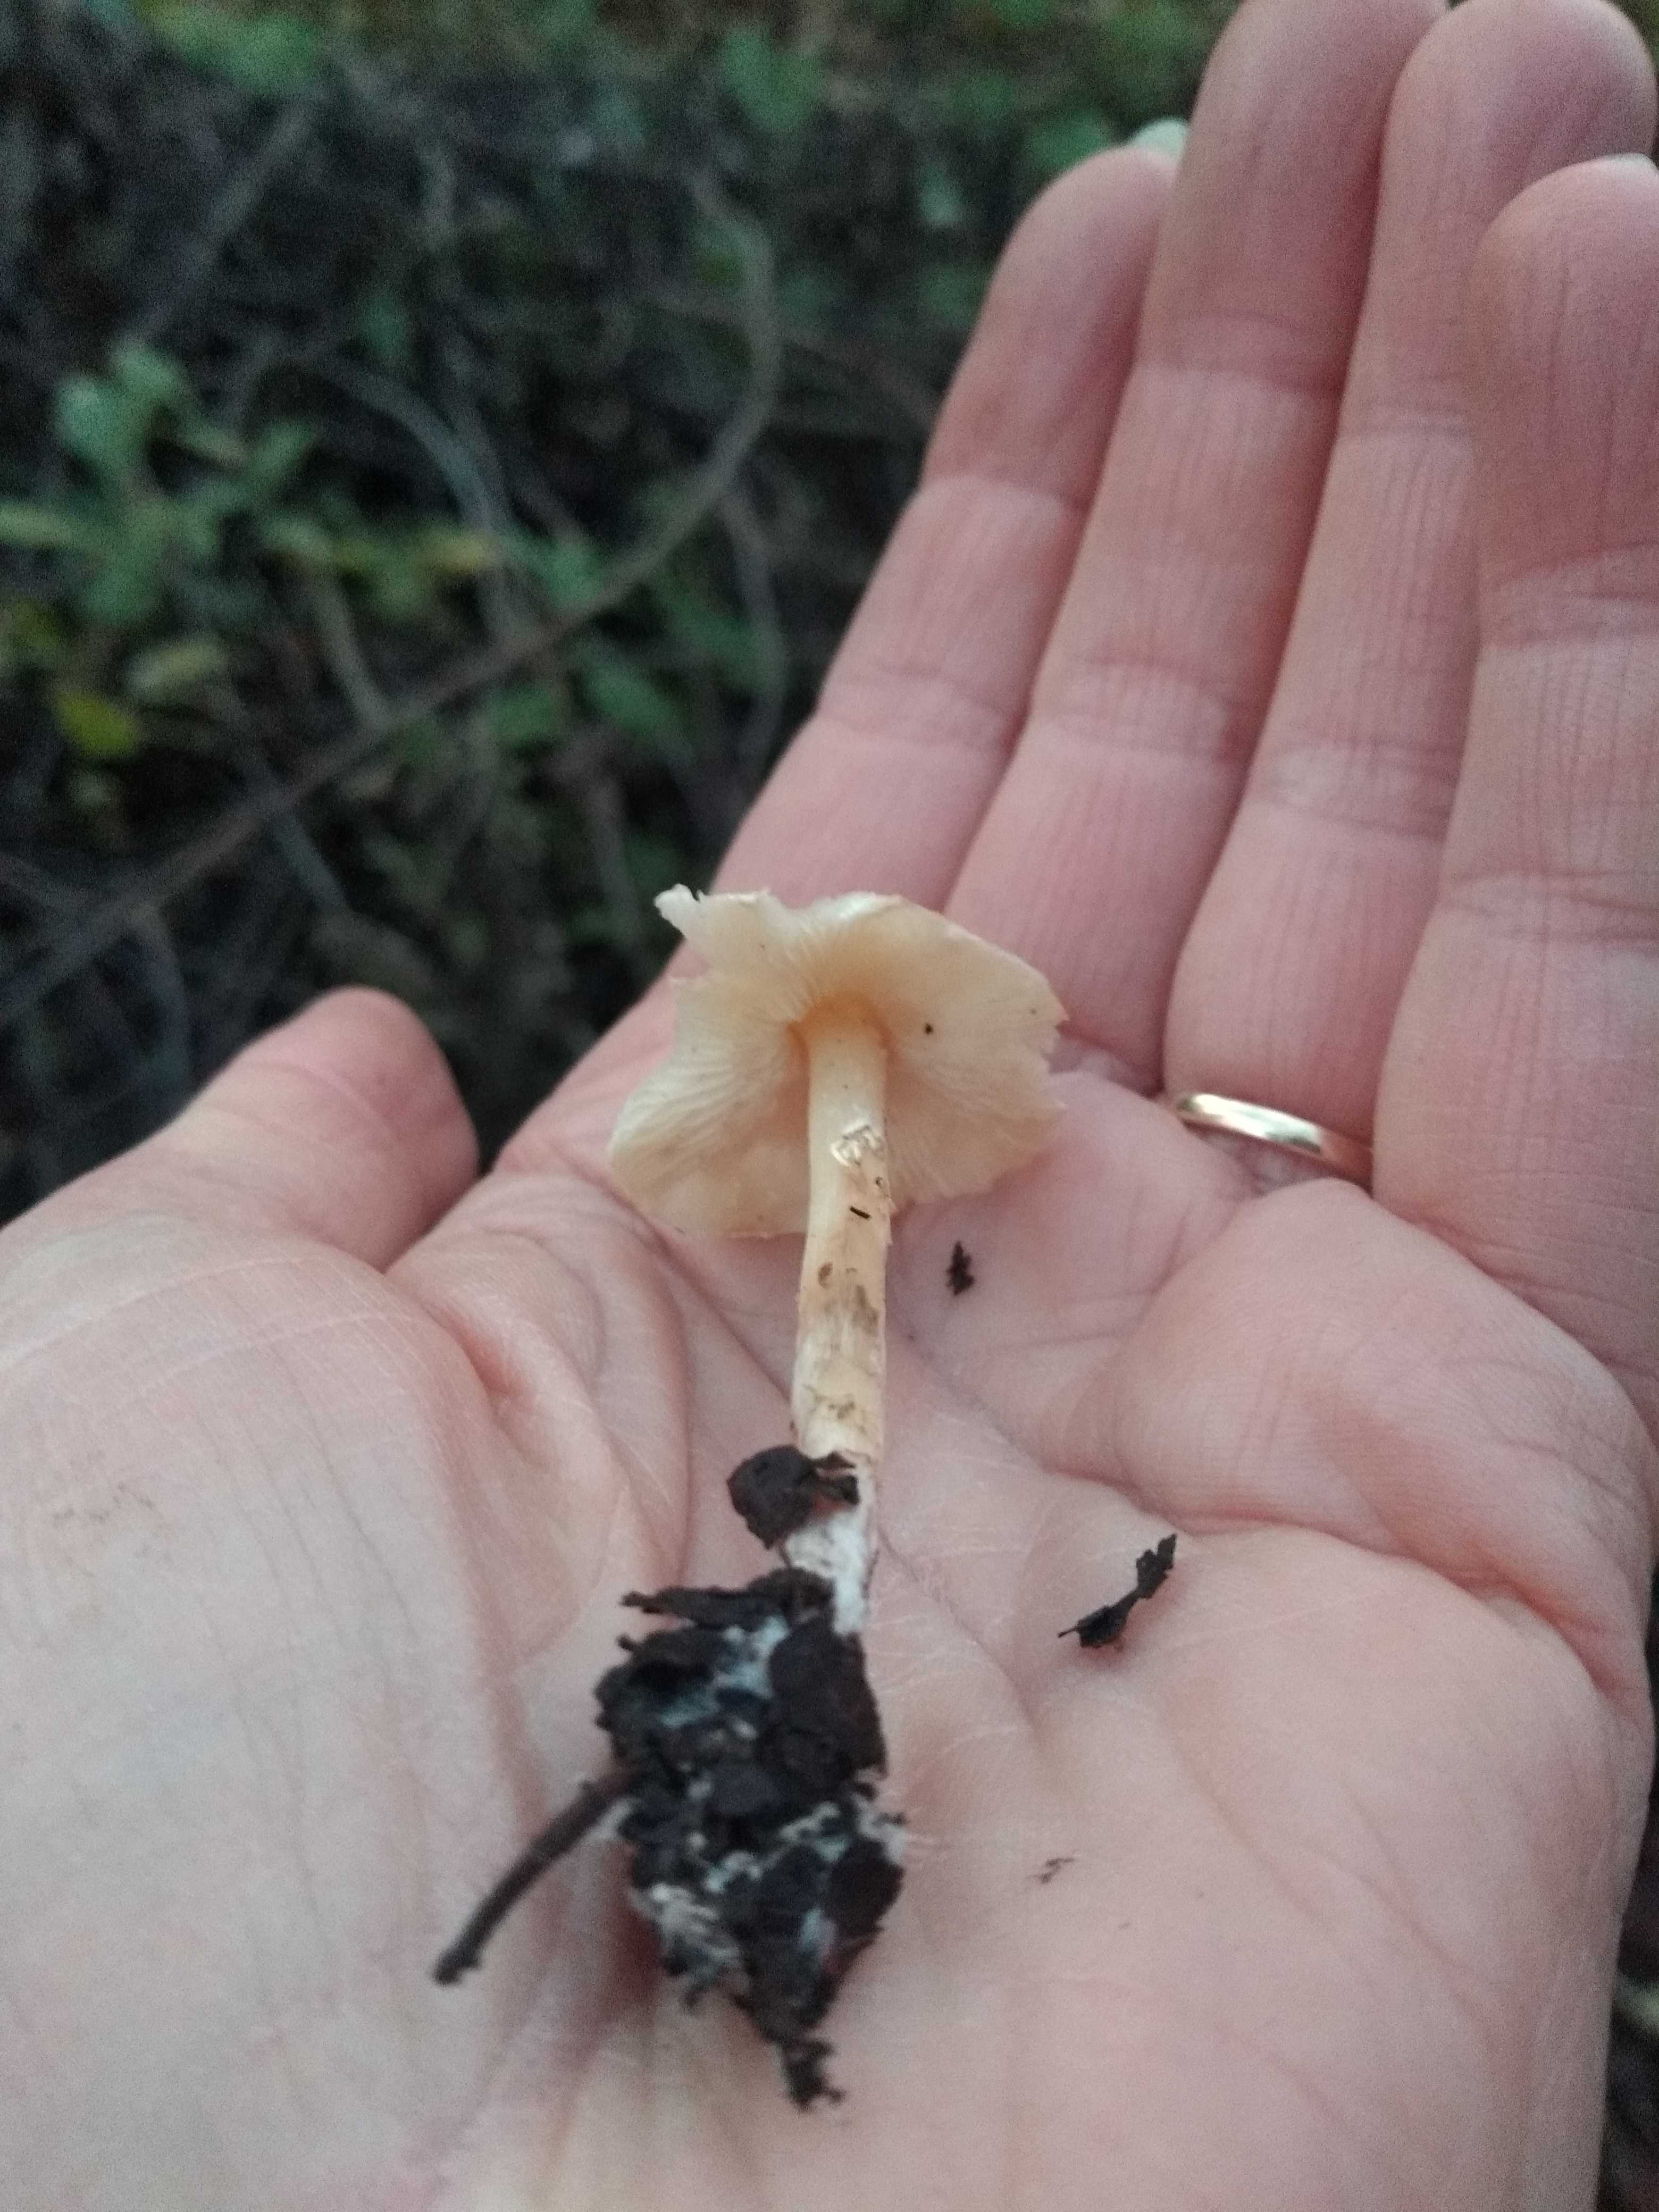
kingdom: Fungi
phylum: Basidiomycota
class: Agaricomycetes
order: Agaricales
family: Agaricaceae
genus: Lepiota
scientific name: Lepiota
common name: parasolhat
